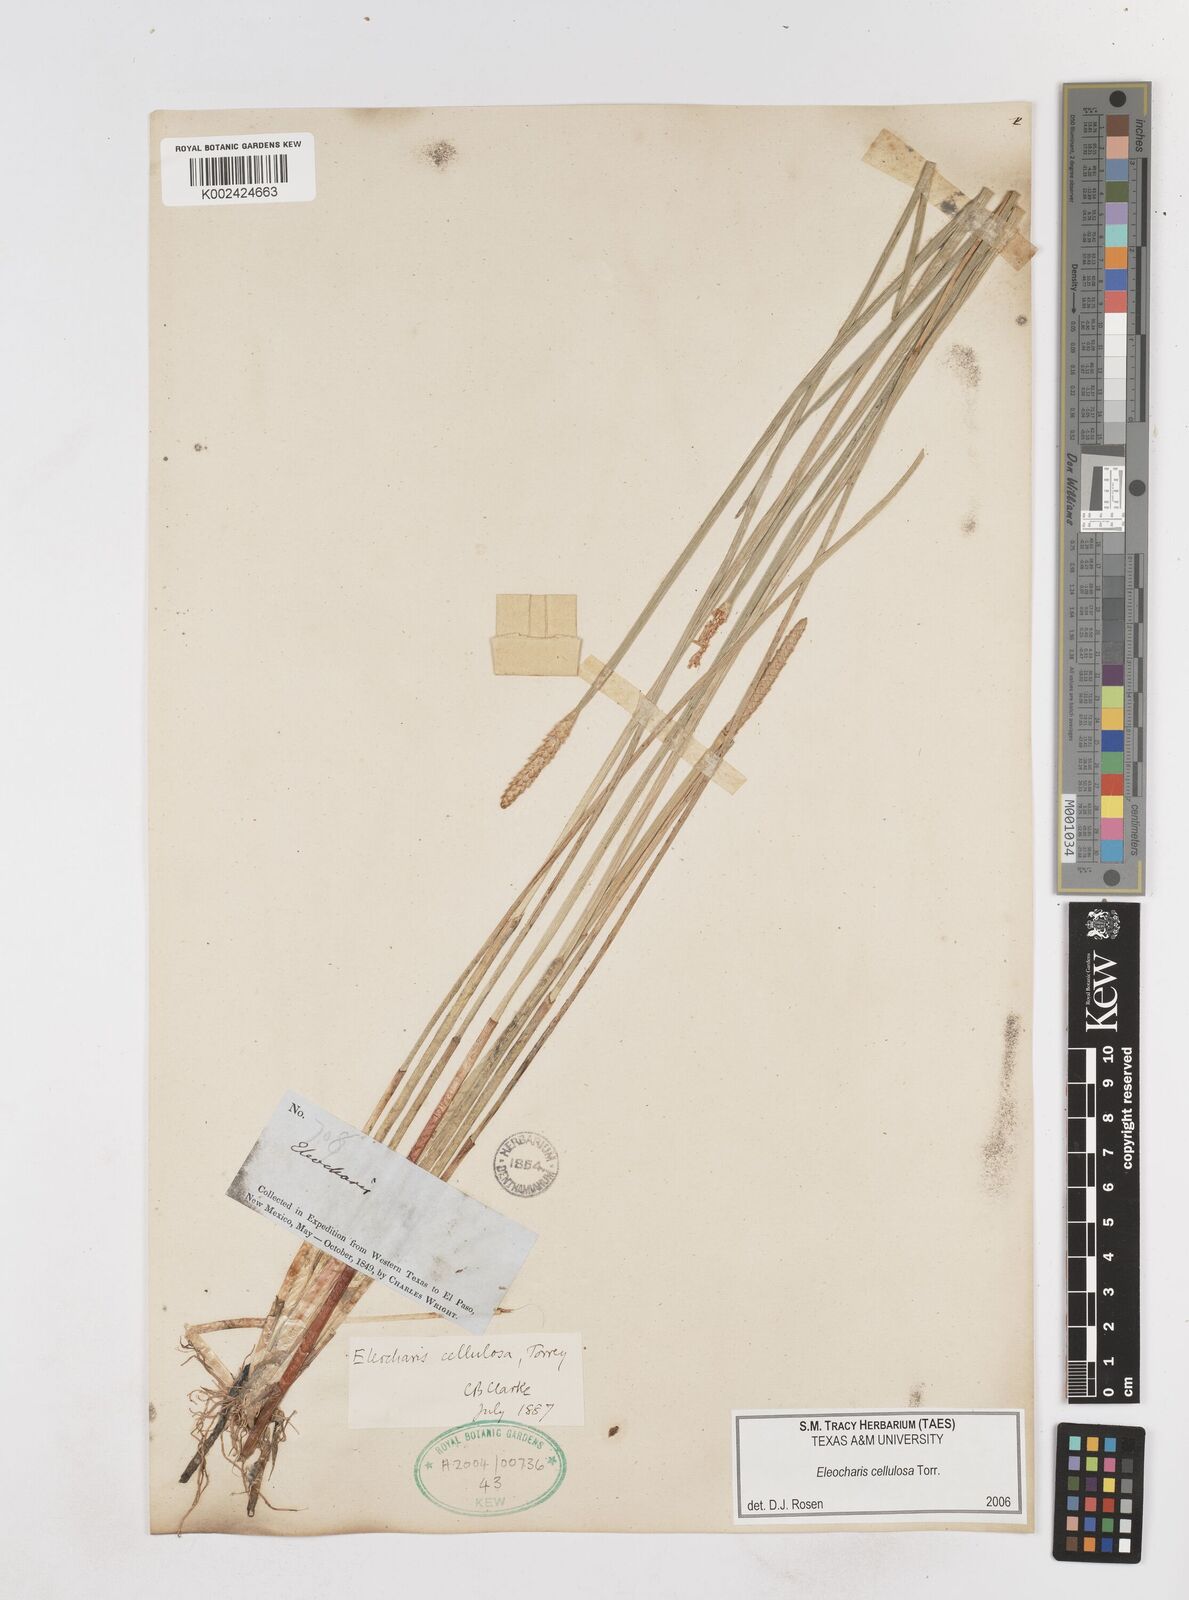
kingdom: Plantae
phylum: Tracheophyta
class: Liliopsida
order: Poales
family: Cyperaceae
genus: Eleocharis
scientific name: Eleocharis cellulosa
